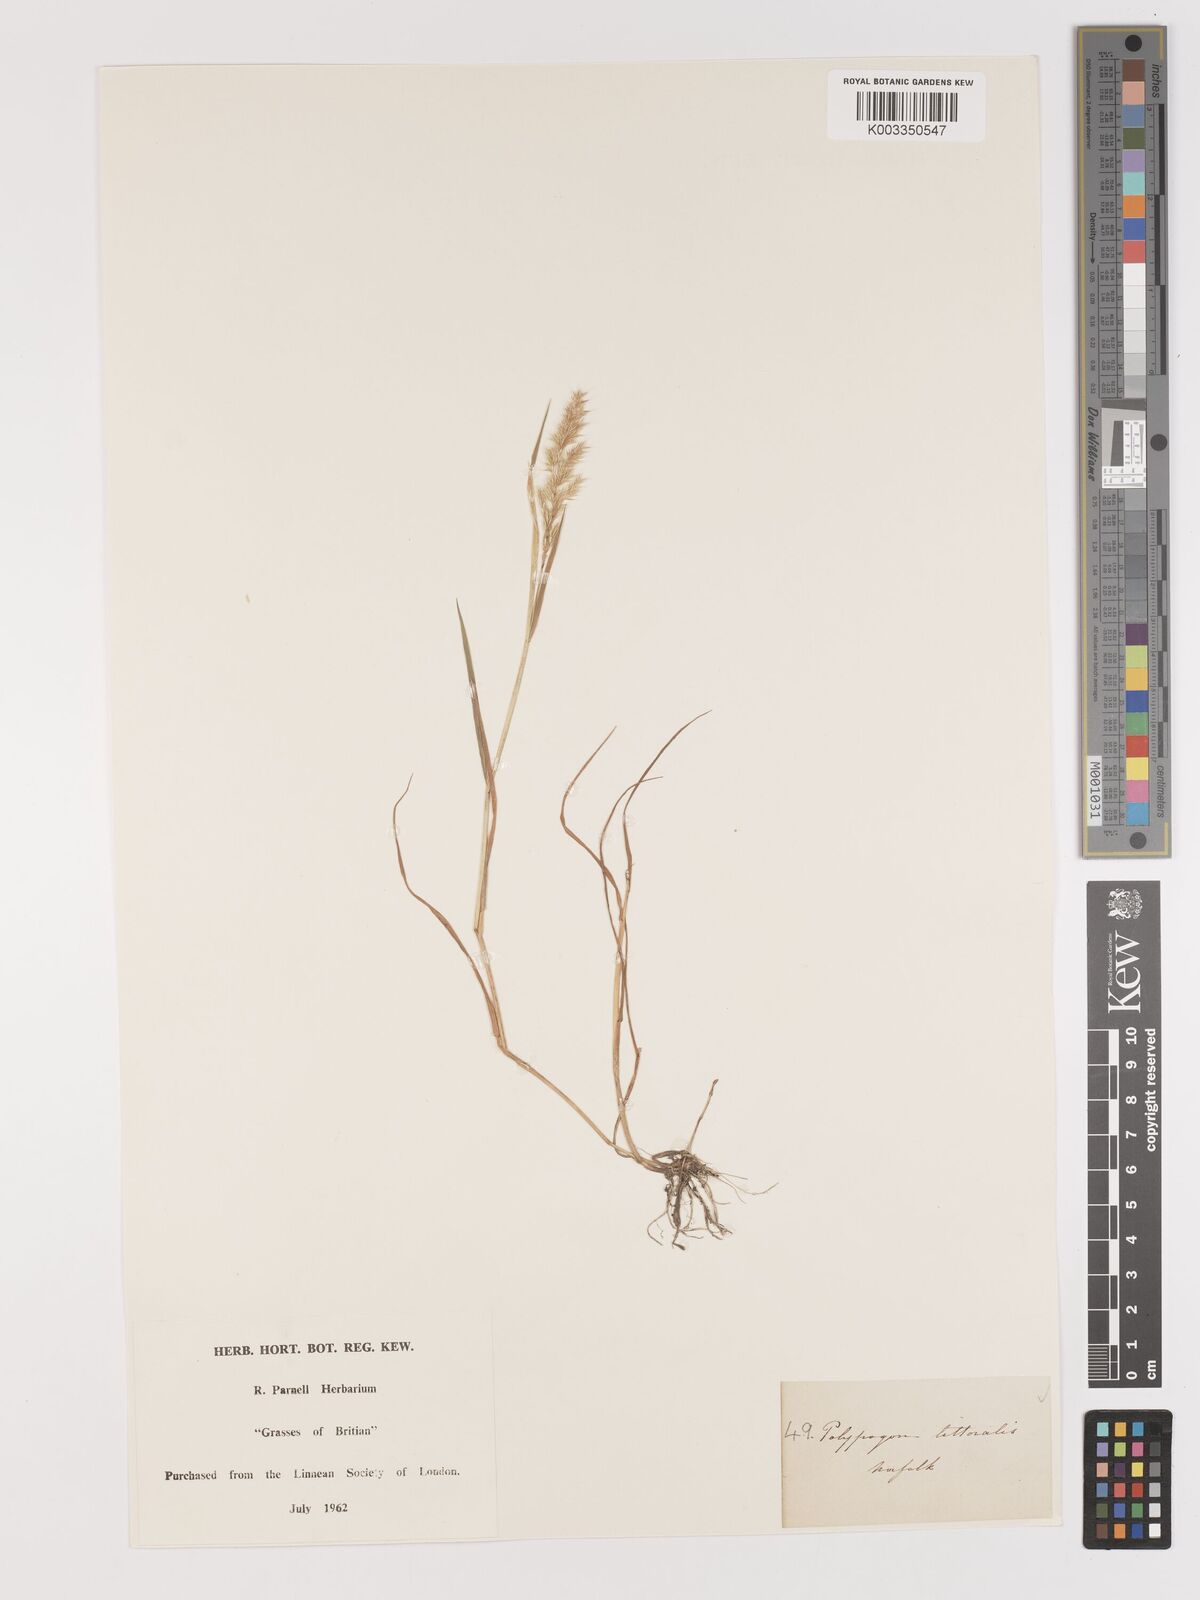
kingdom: Plantae
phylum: Tracheophyta
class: Liliopsida
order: Poales
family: Poaceae
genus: Agropogon
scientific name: Agropogon lutosus
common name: Coast agropogon
